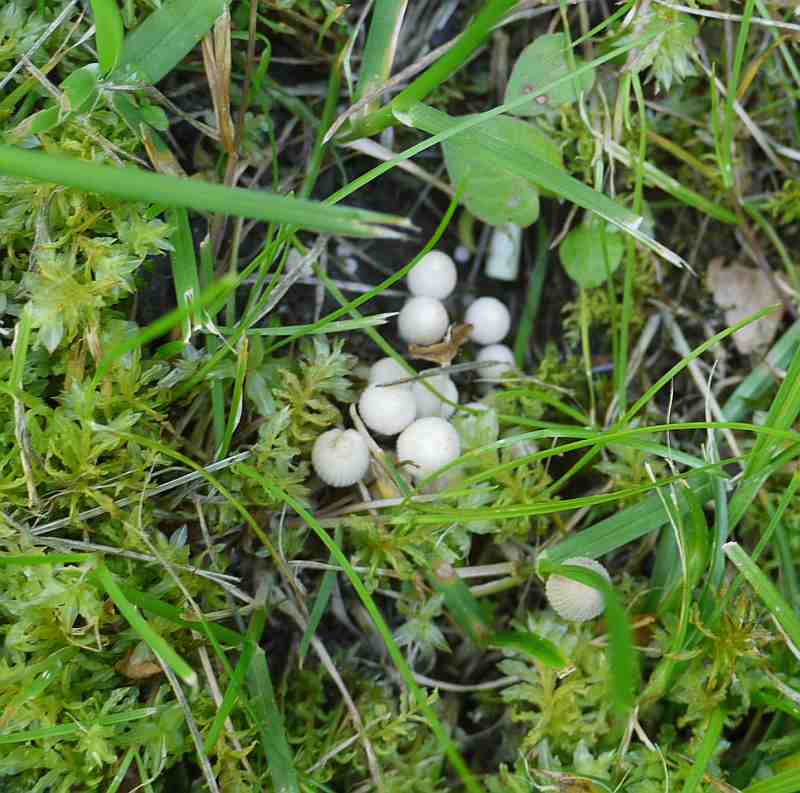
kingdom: Fungi
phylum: Basidiomycota
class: Agaricomycetes
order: Agaricales
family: Psathyrellaceae
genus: Coprinellus
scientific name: Coprinellus disseminatus
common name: bredsået blækhat
